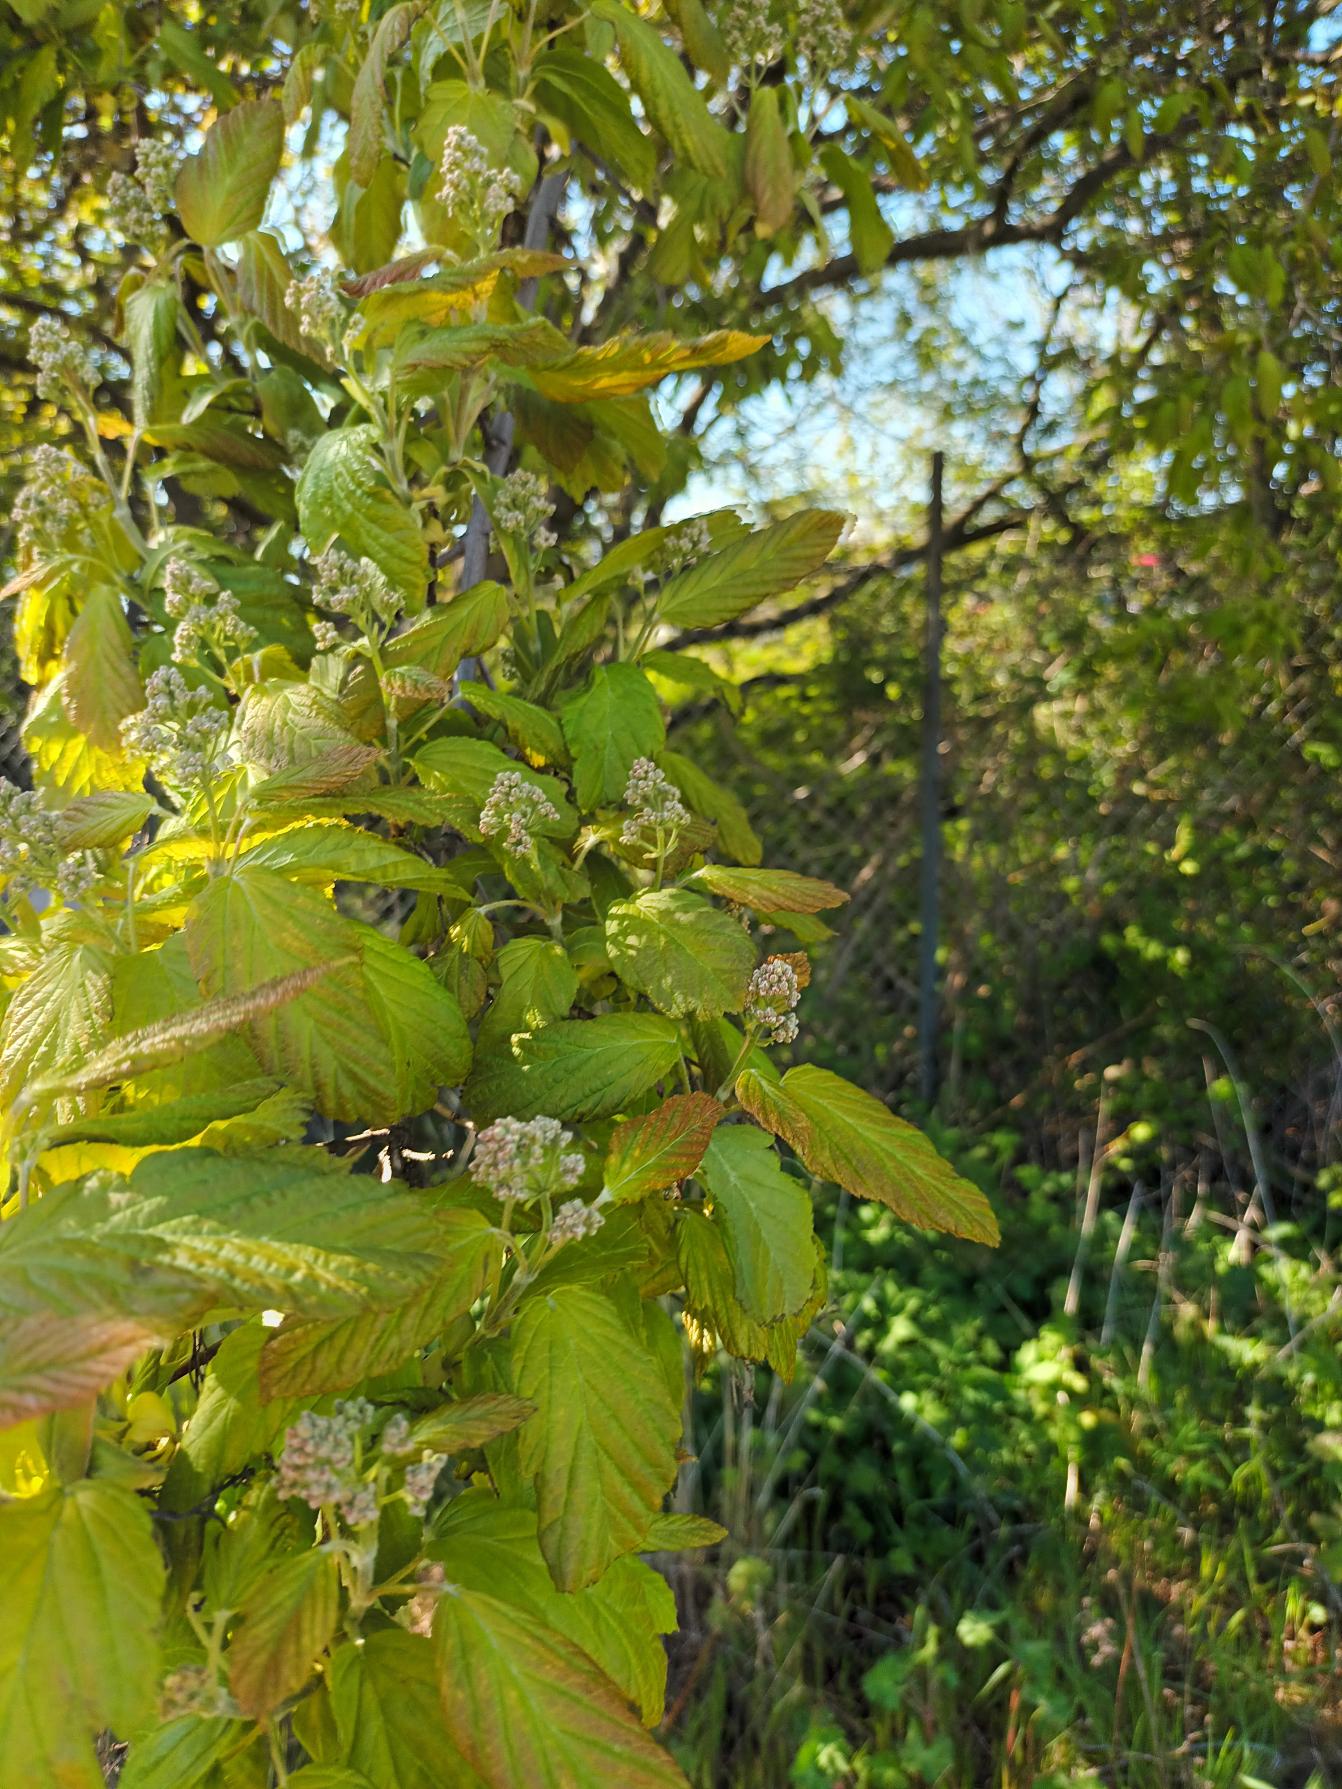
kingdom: Plantae
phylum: Tracheophyta
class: Magnoliopsida
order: Sapindales
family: Sapindaceae
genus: Acer
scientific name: Acer tataricum
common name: Russisk løn
